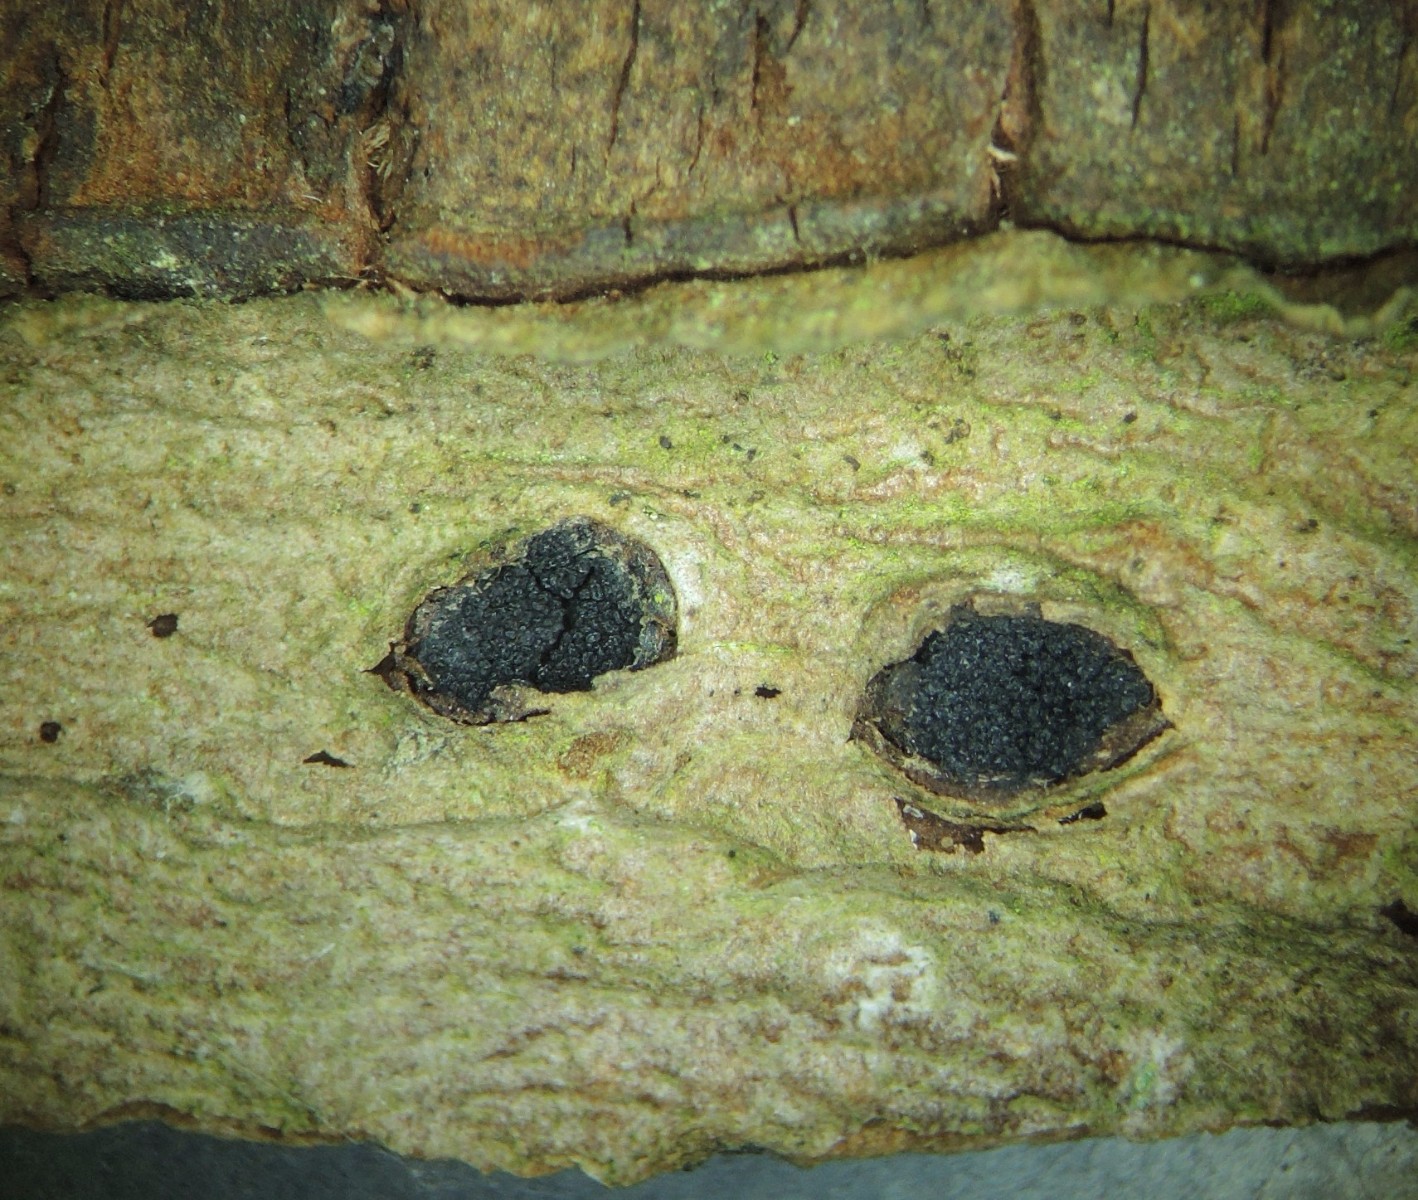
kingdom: Fungi
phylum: Ascomycota
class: Sordariomycetes
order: Xylariales
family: Diatrypaceae
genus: Eutypella
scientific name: Eutypella sorbi
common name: rønne-kulskorpe
